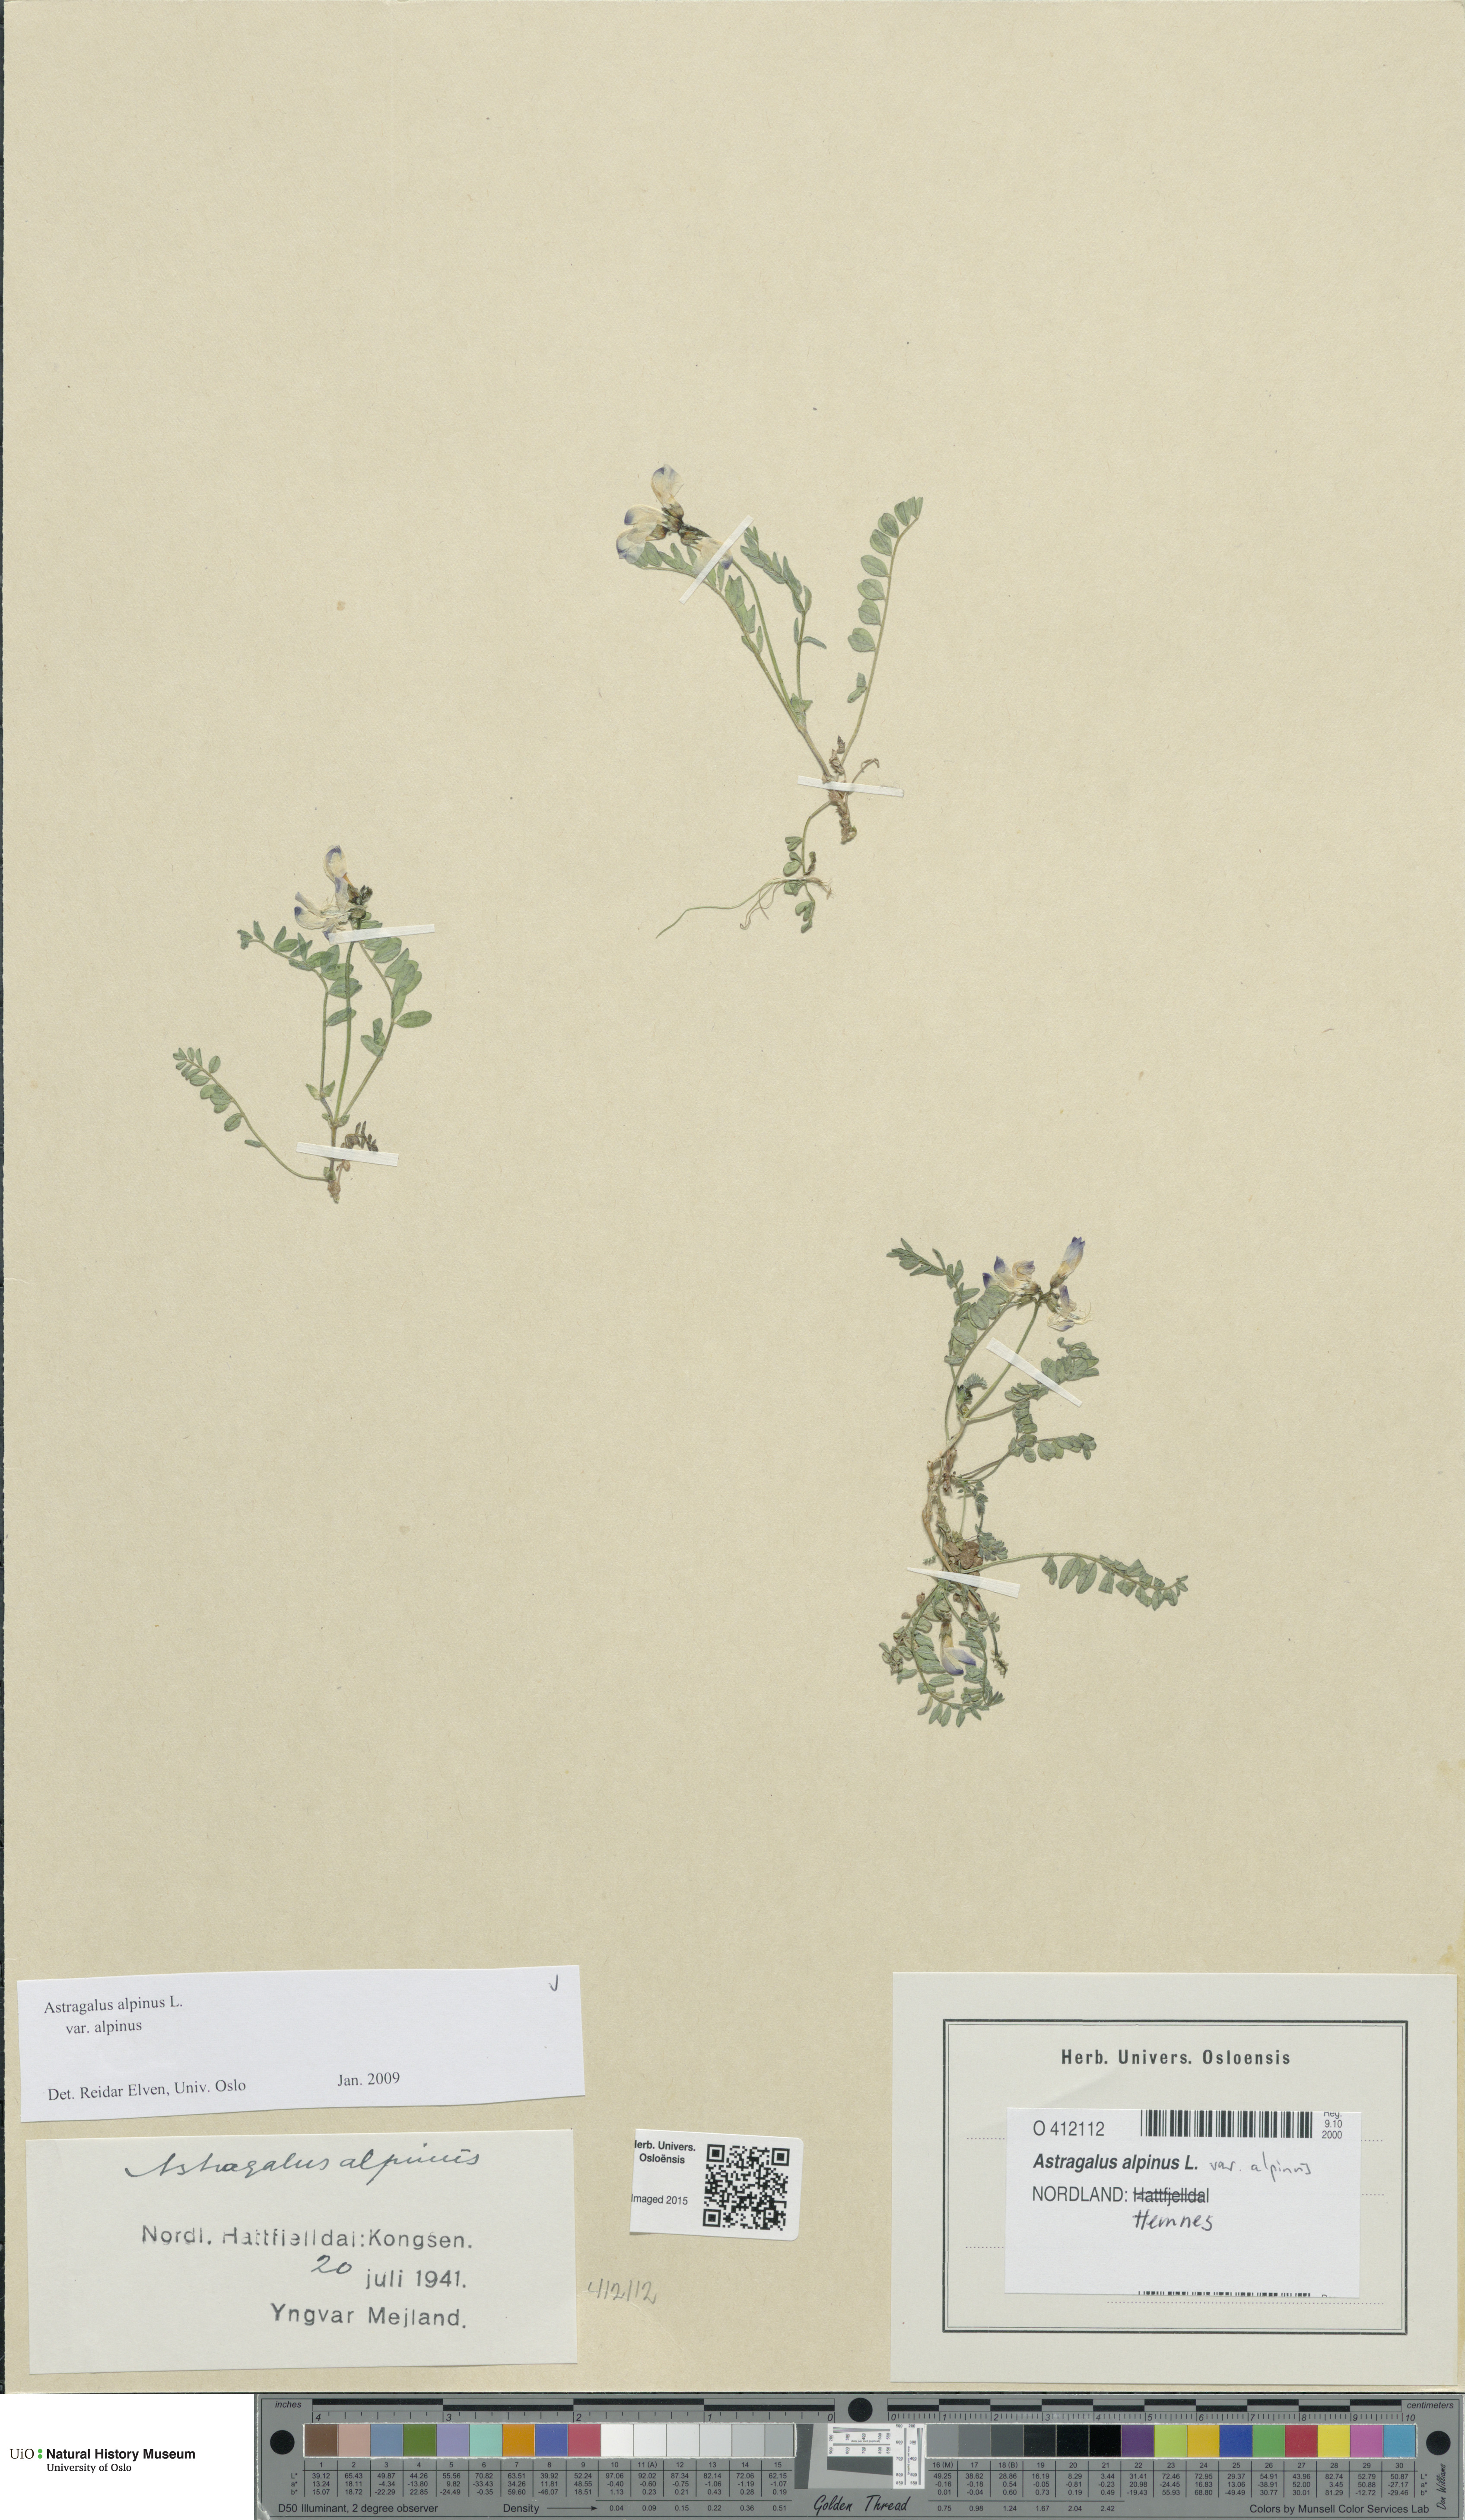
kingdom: Plantae
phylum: Tracheophyta
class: Magnoliopsida
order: Fabales
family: Fabaceae
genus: Astragalus
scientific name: Astragalus alpinus
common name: Alpine milk-vetch
